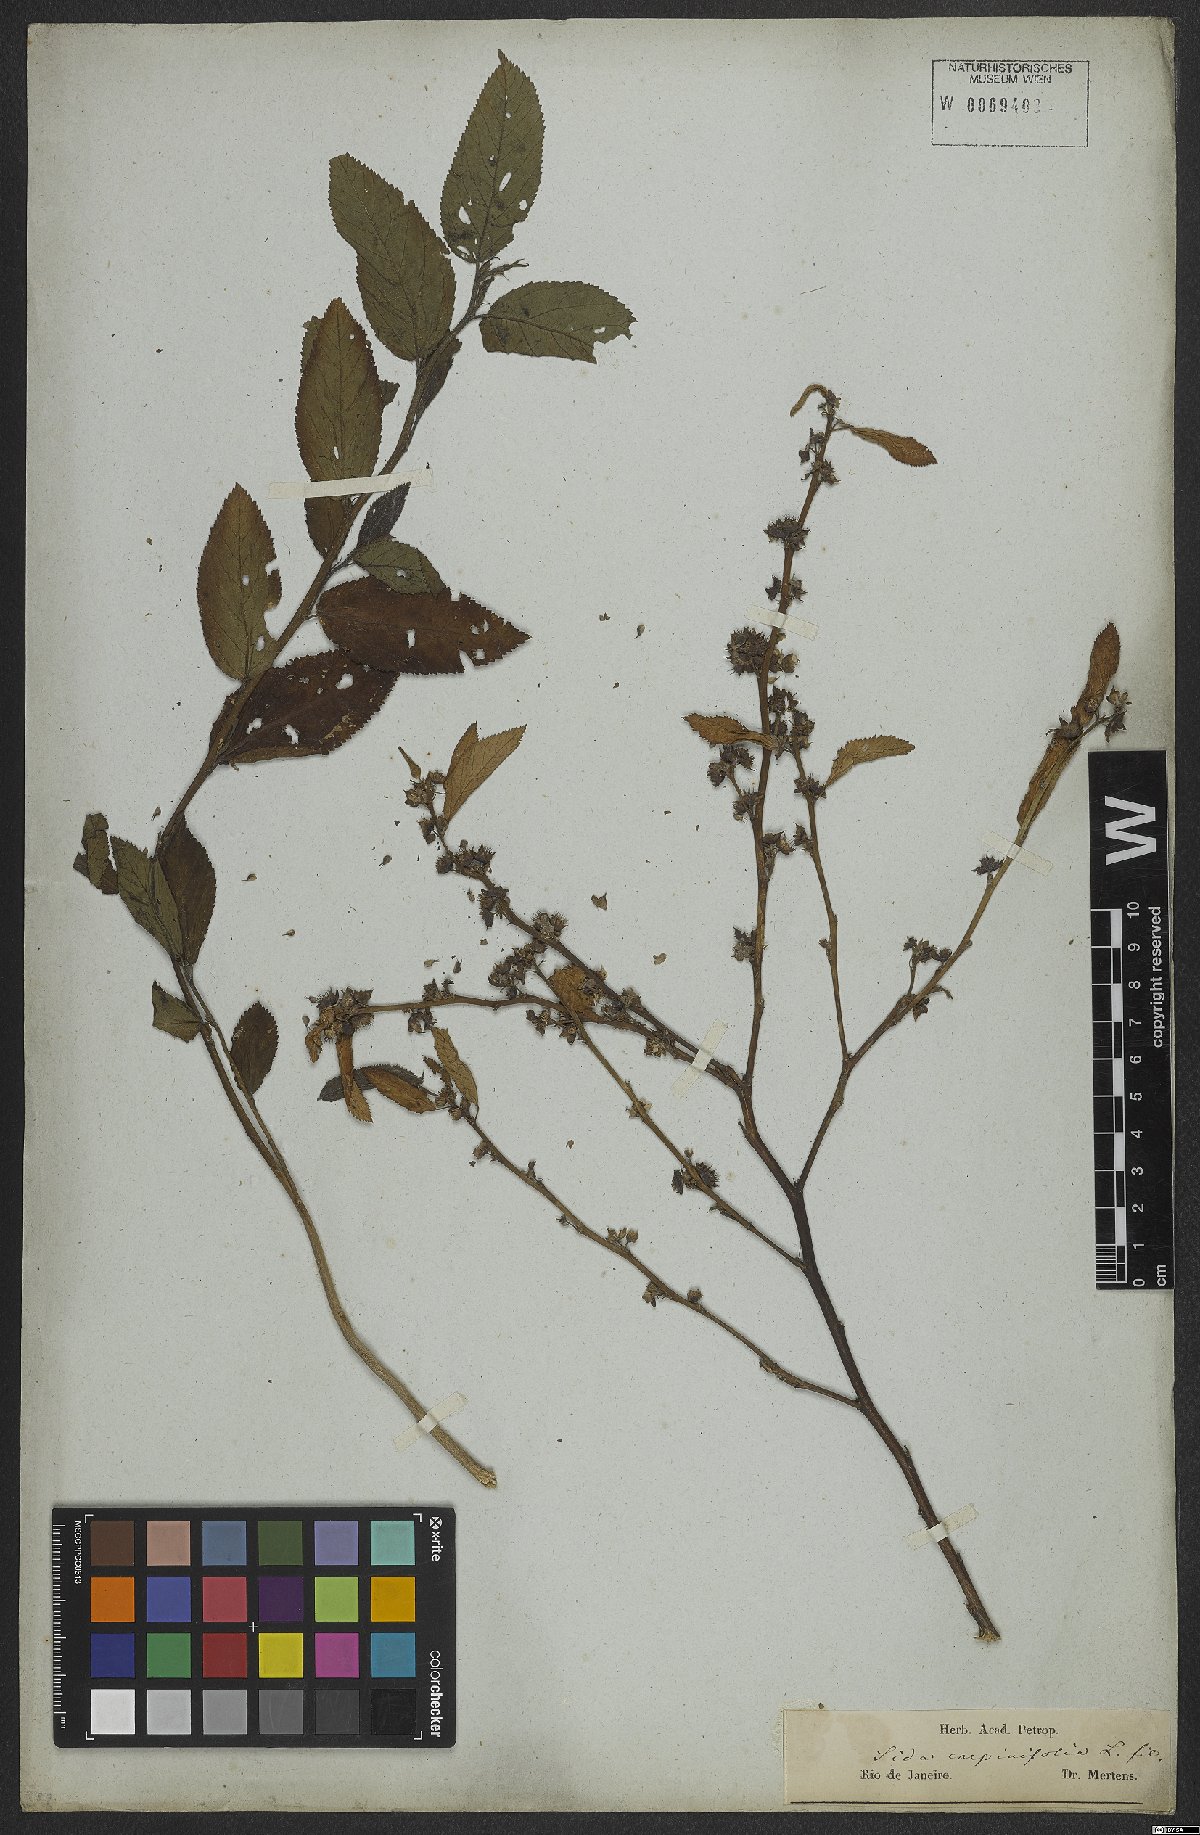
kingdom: Plantae
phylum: Tracheophyta
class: Magnoliopsida
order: Malvales
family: Malvaceae
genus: Sida
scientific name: Sida acuta
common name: Common wireweed
